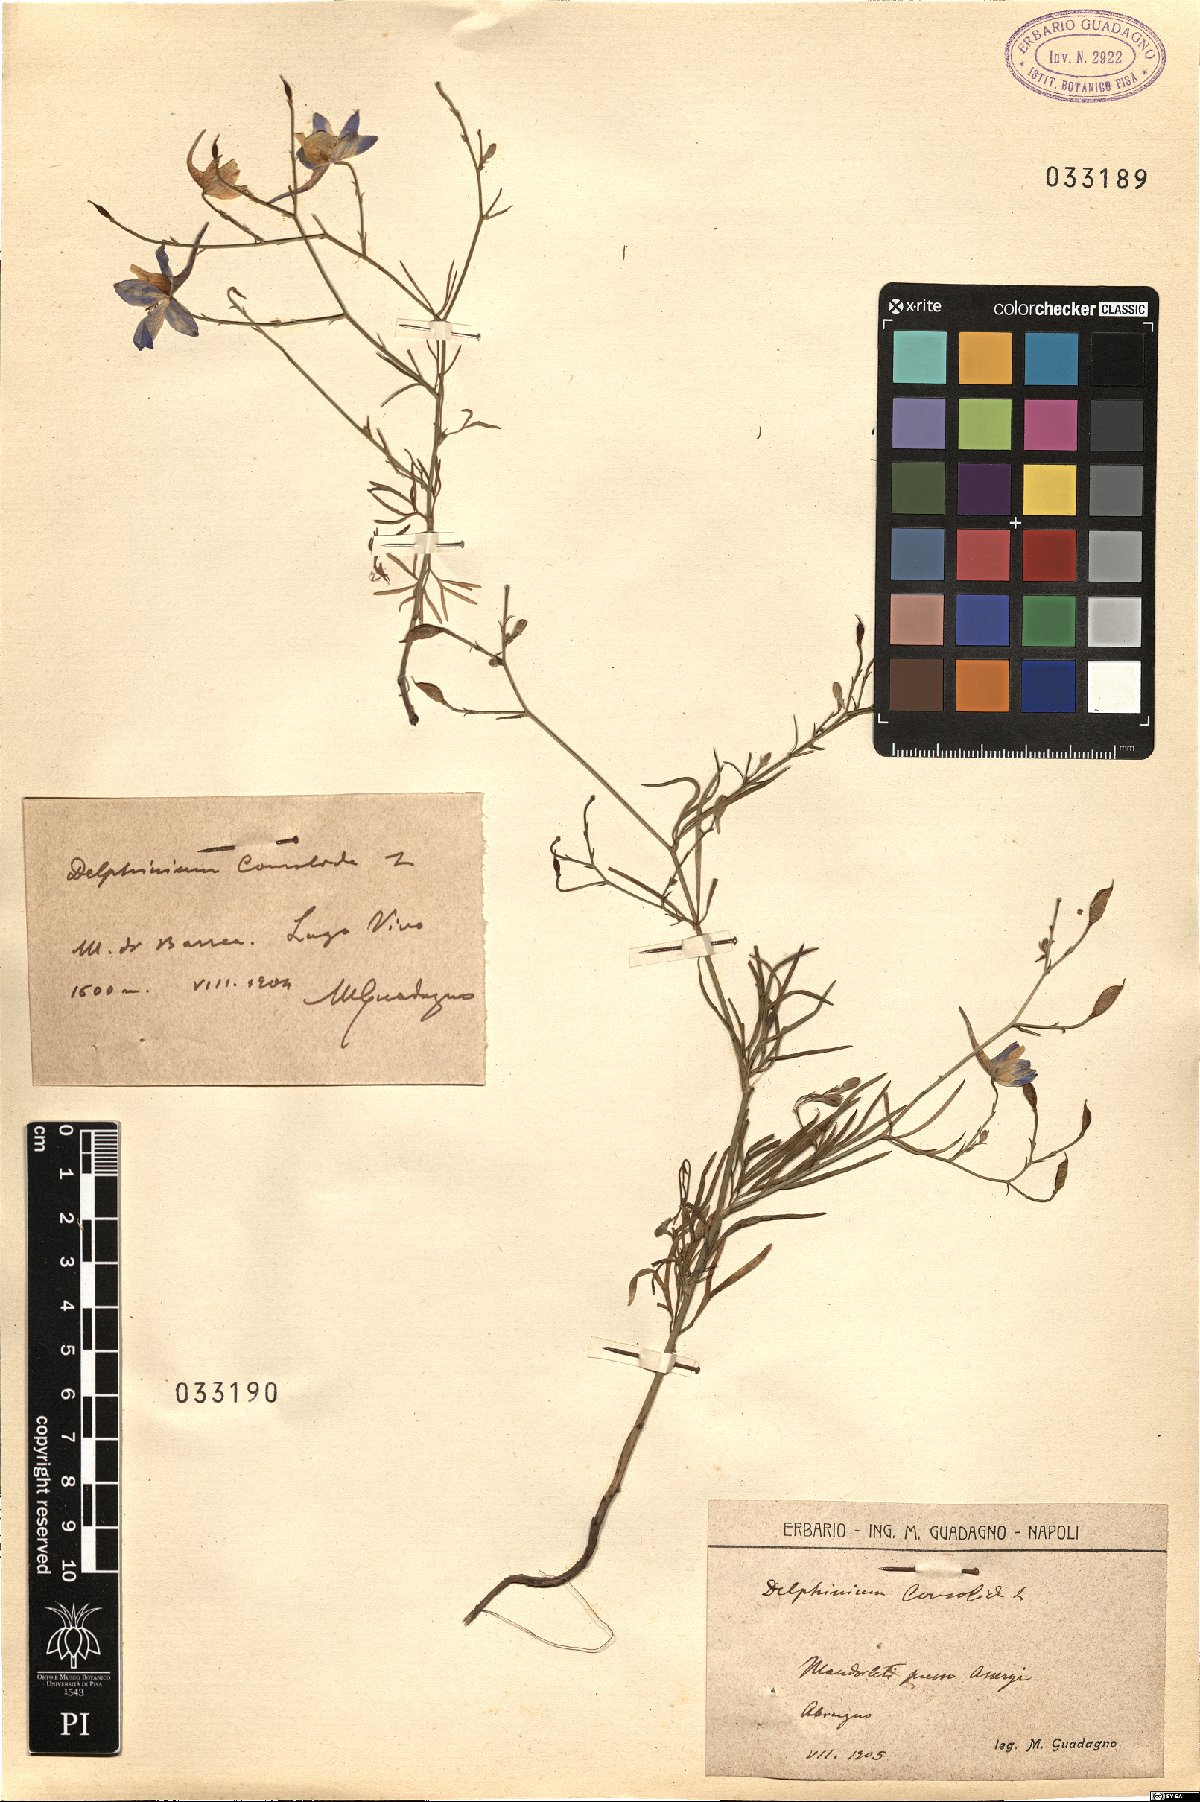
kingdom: Plantae
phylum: Tracheophyta
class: Magnoliopsida
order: Ranunculales
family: Ranunculaceae
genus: Delphinium
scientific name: Delphinium consolida
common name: Branching larkspur
